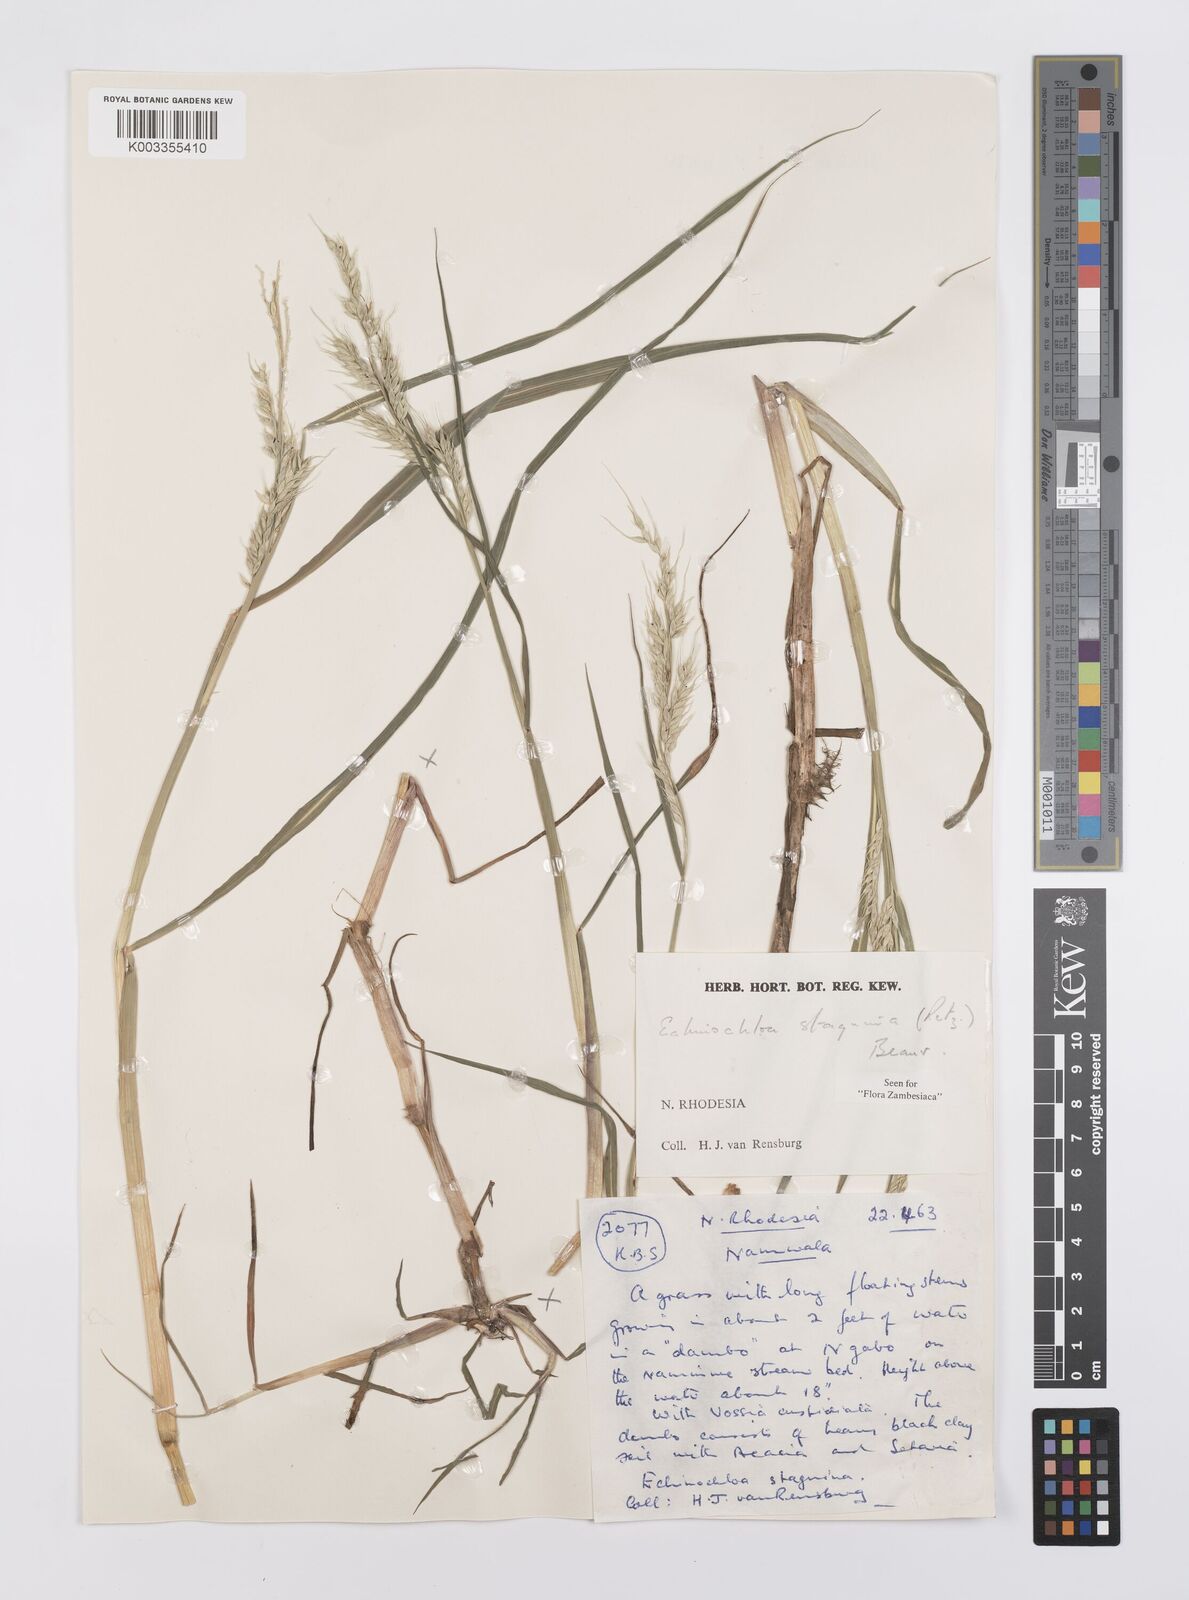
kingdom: Plantae
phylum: Tracheophyta
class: Liliopsida
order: Poales
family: Poaceae
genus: Echinochloa
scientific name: Echinochloa stagnina
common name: Burgu grass
